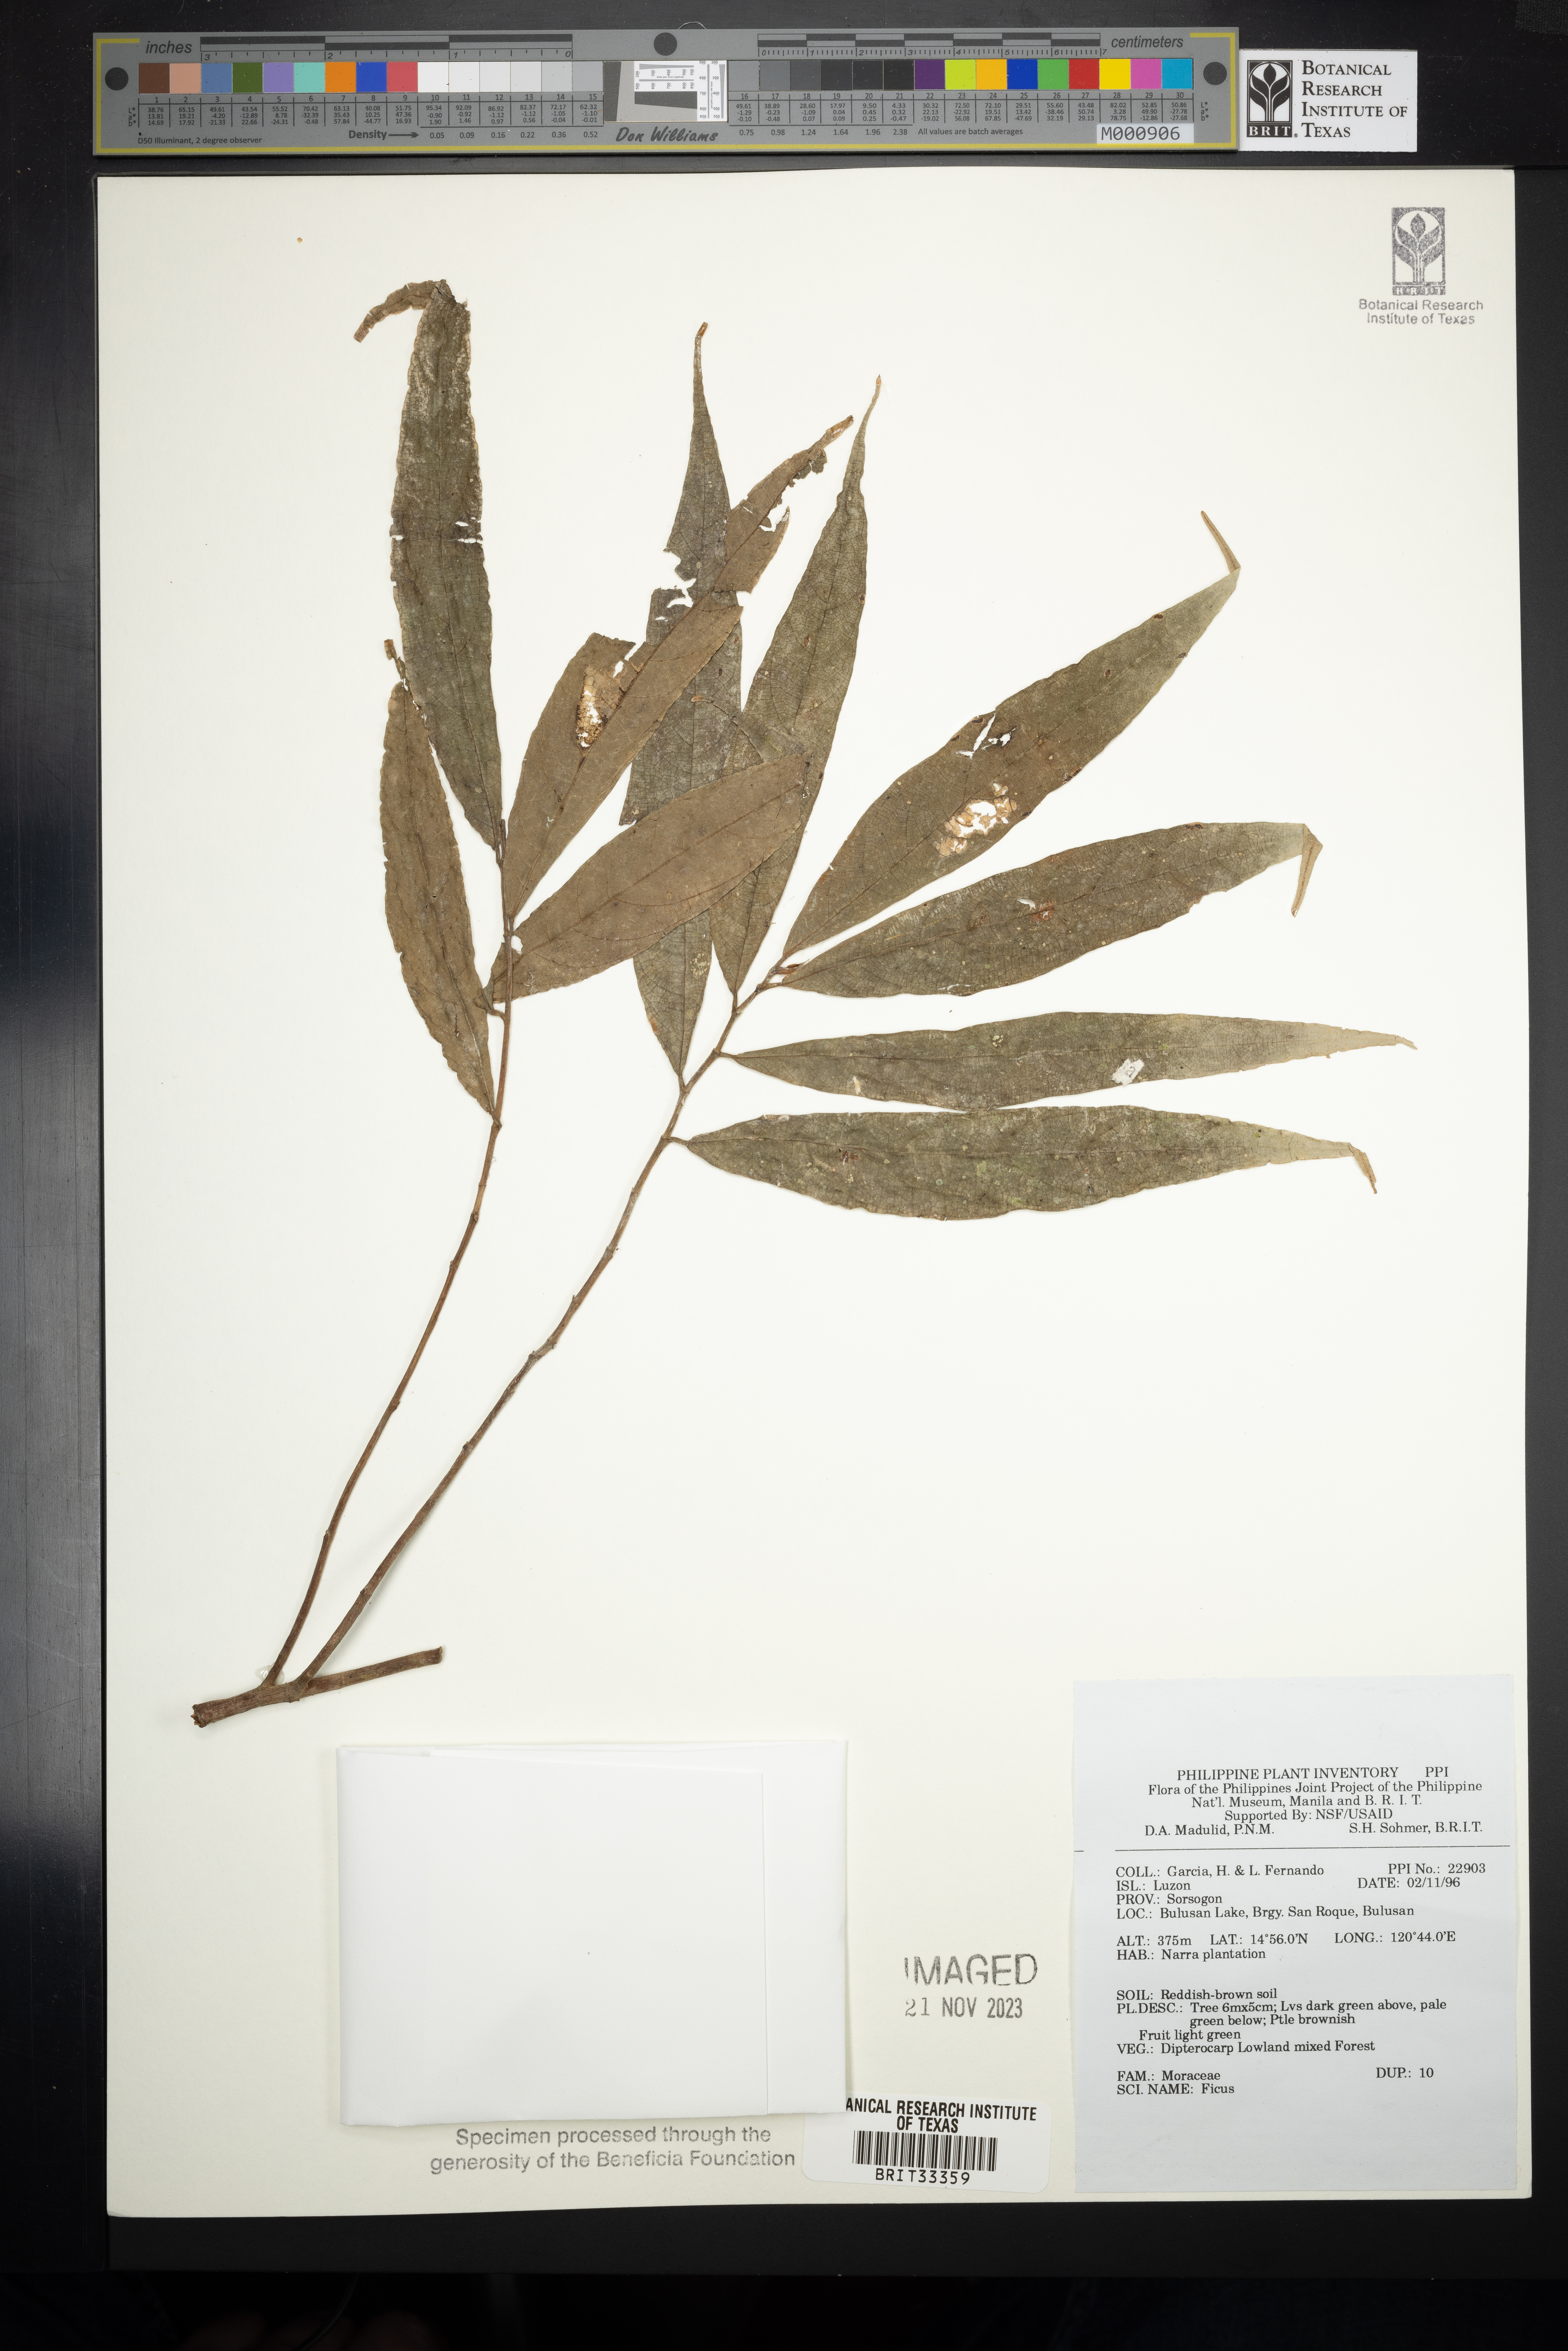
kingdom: Plantae
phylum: Tracheophyta
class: Magnoliopsida
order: Rosales
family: Moraceae
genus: Ficus
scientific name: Ficus
